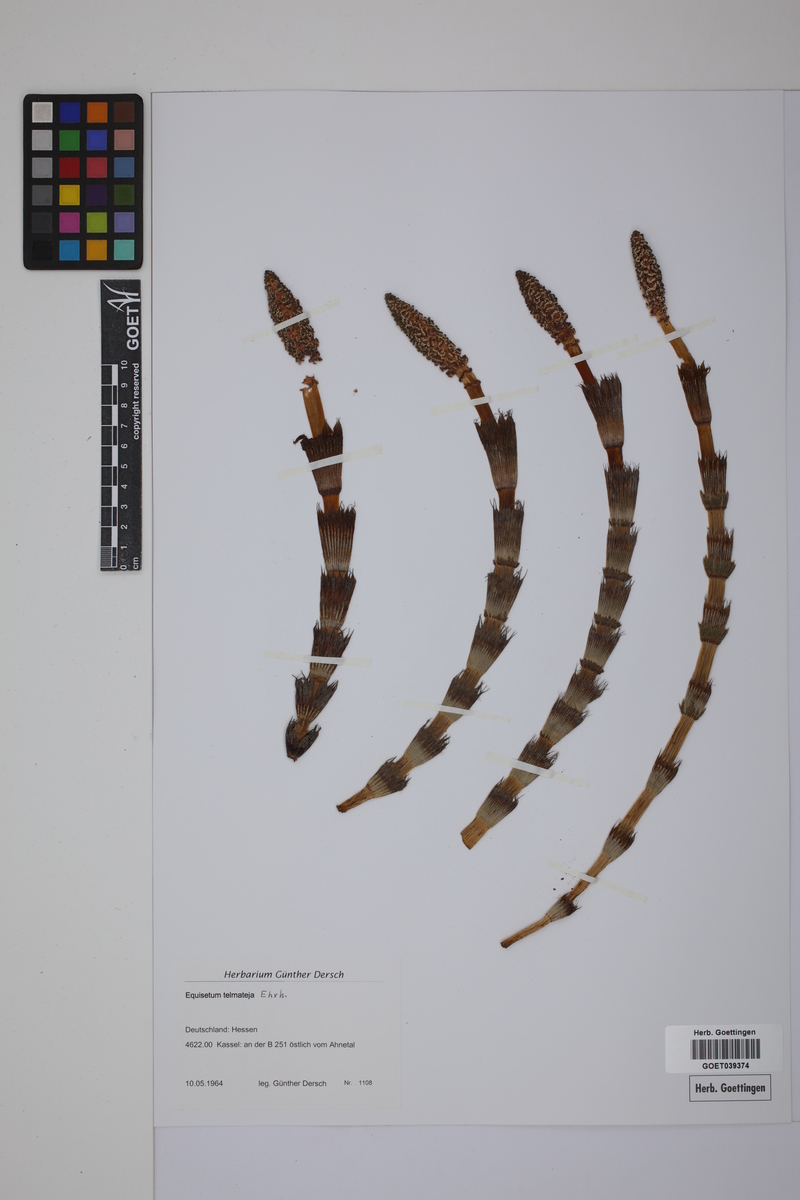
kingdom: Plantae
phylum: Tracheophyta
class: Polypodiopsida
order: Equisetales
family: Equisetaceae
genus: Equisetum
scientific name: Equisetum telmateia
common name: Great horsetail
